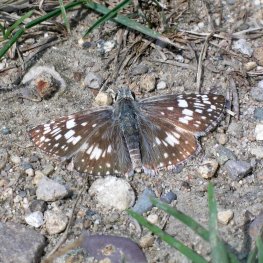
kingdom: Animalia
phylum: Arthropoda
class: Insecta
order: Lepidoptera
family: Hesperiidae
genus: Pyrgus
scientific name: Pyrgus communis
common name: Common Checkered-Skipper
